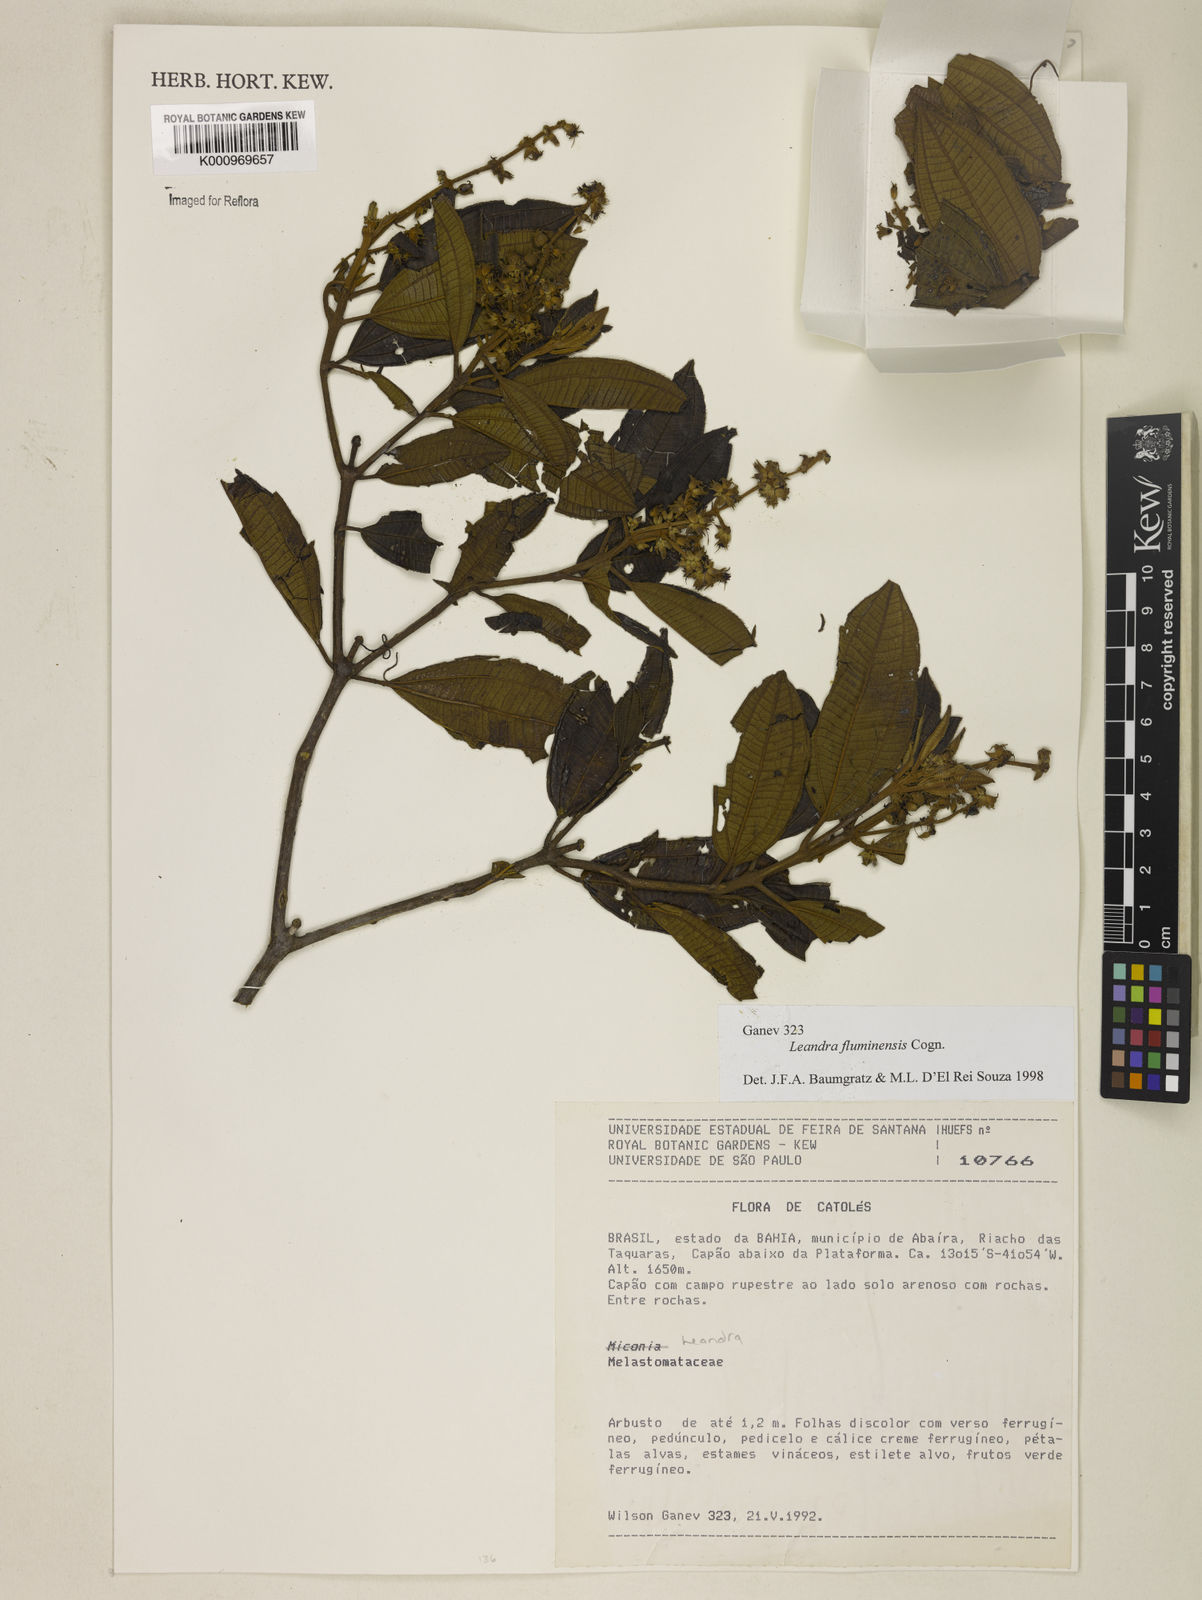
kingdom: Plantae
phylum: Tracheophyta
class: Magnoliopsida
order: Myrtales
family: Melastomataceae
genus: Miconia
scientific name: Miconia leafluminensis
